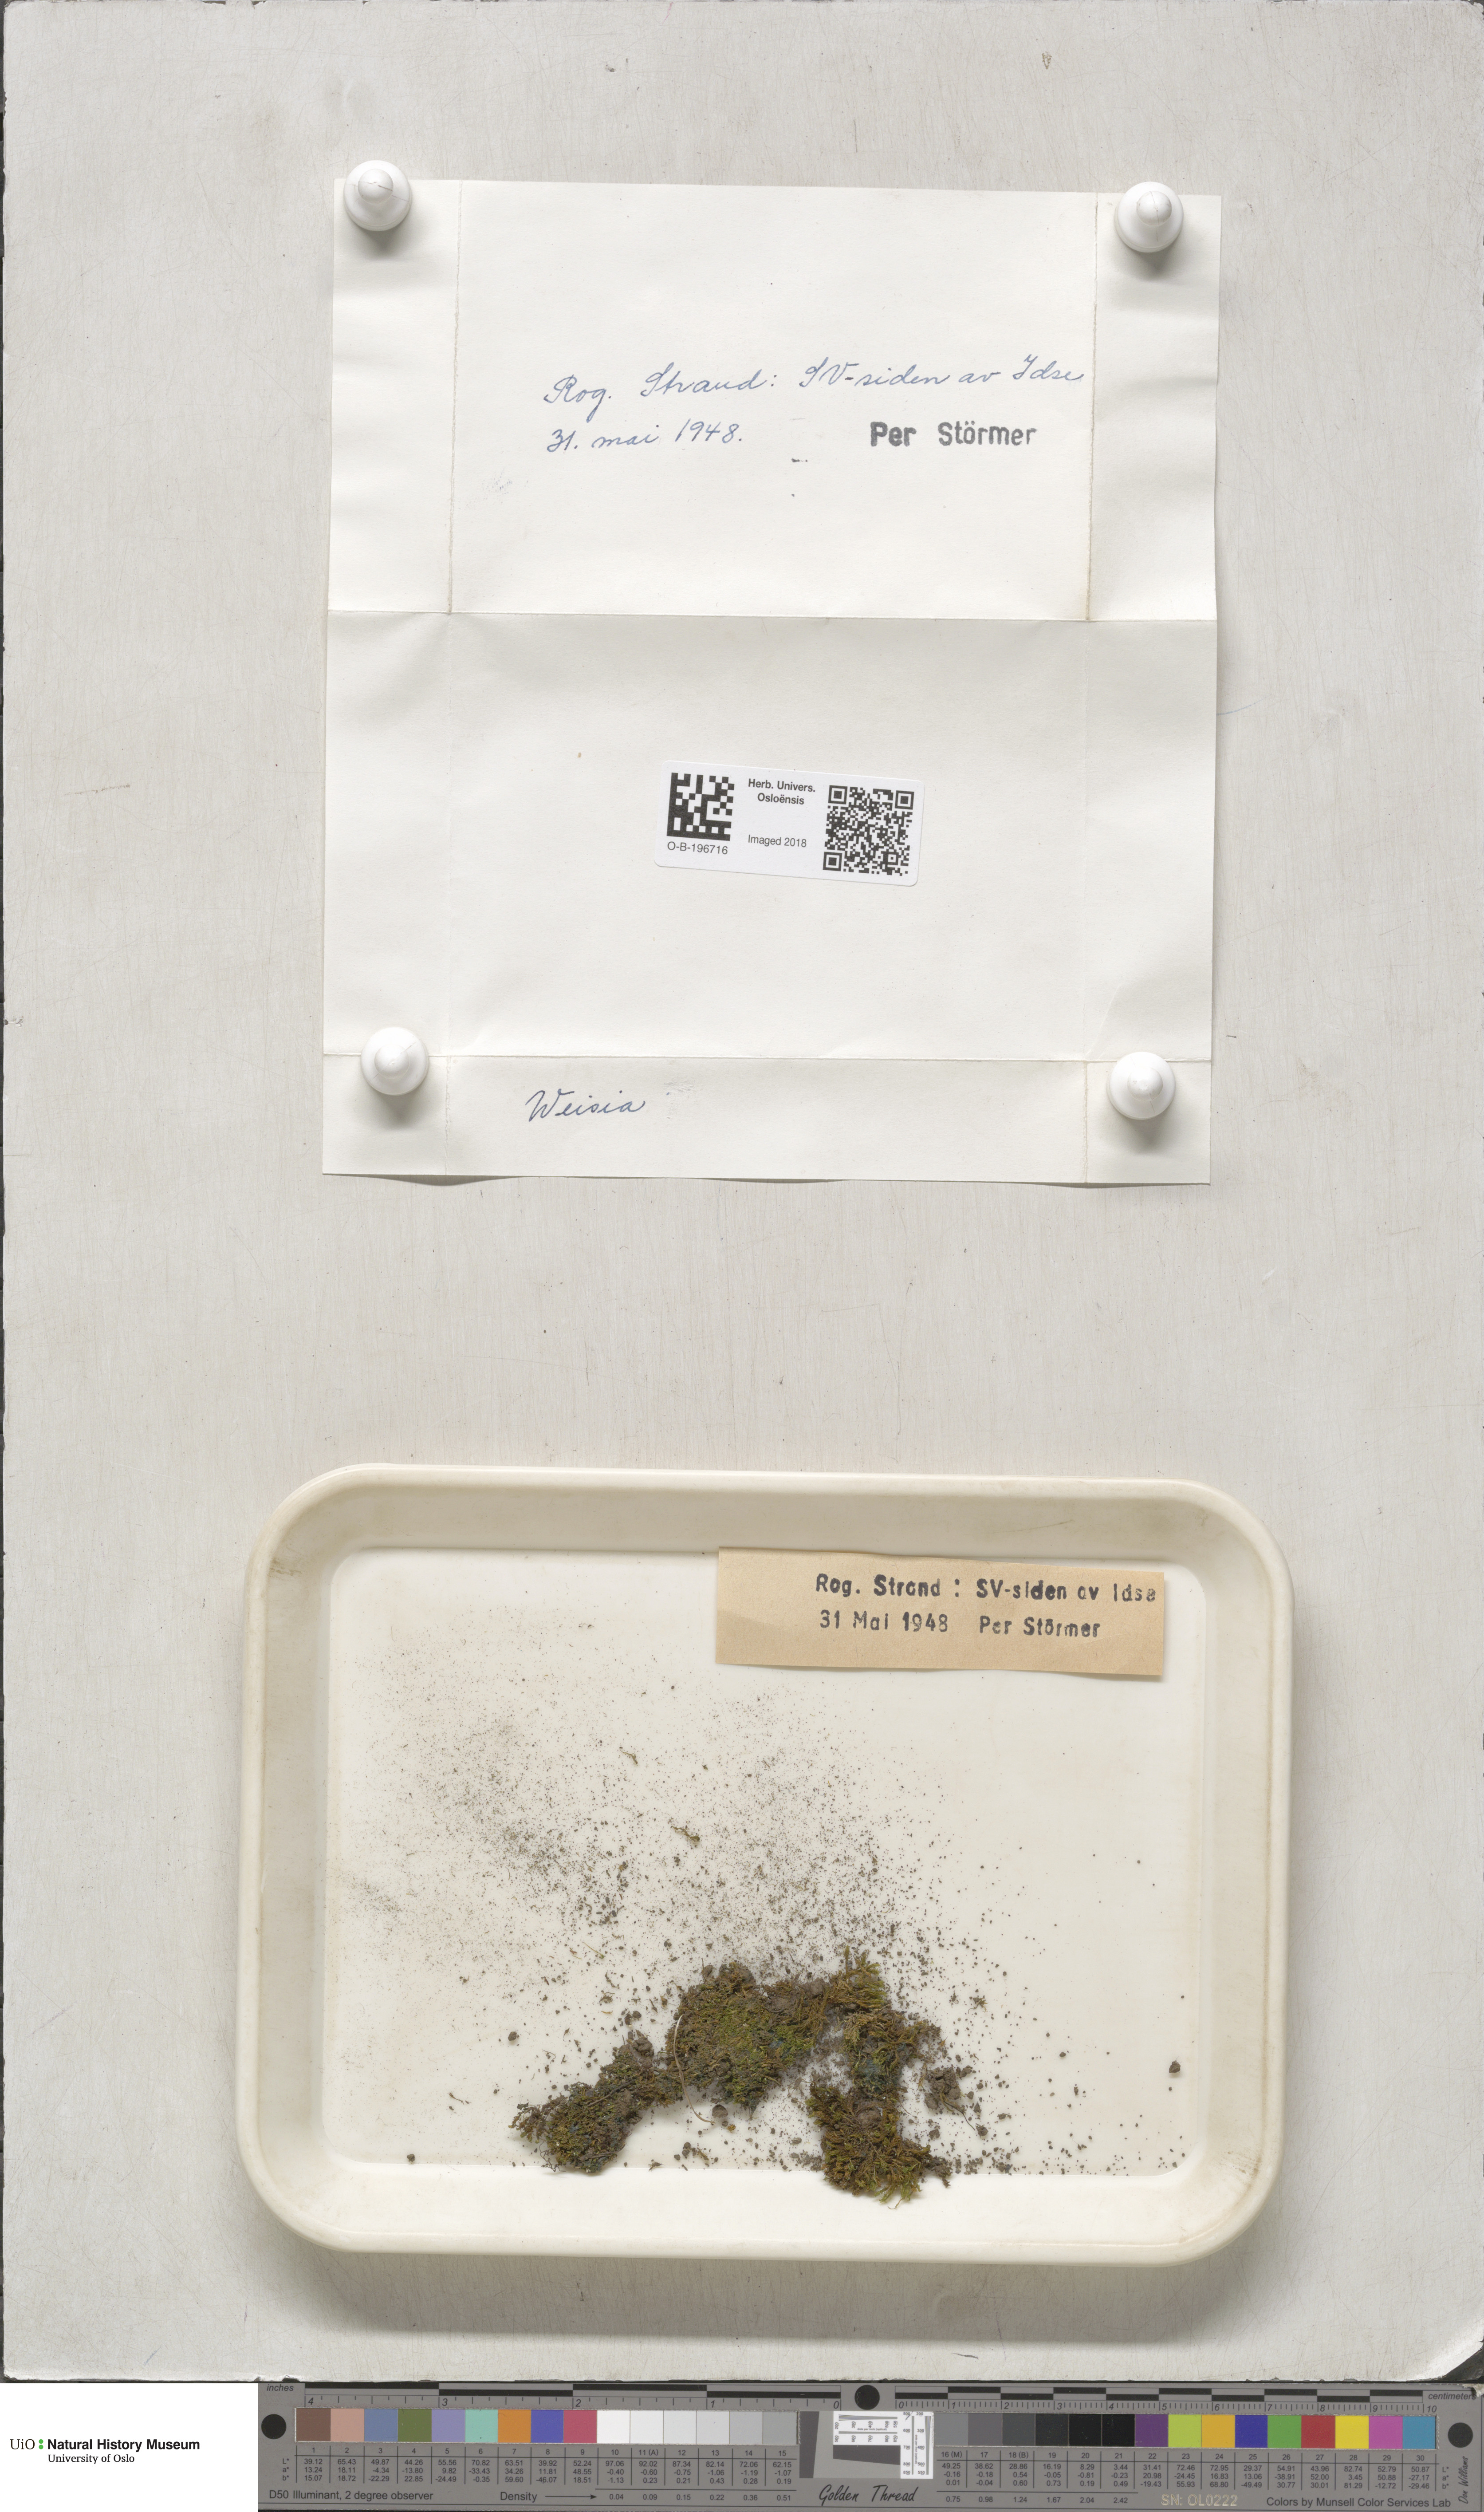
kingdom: Plantae
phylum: Bryophyta
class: Bryopsida
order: Pottiales
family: Pottiaceae
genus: Weissia
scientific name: Weissia
